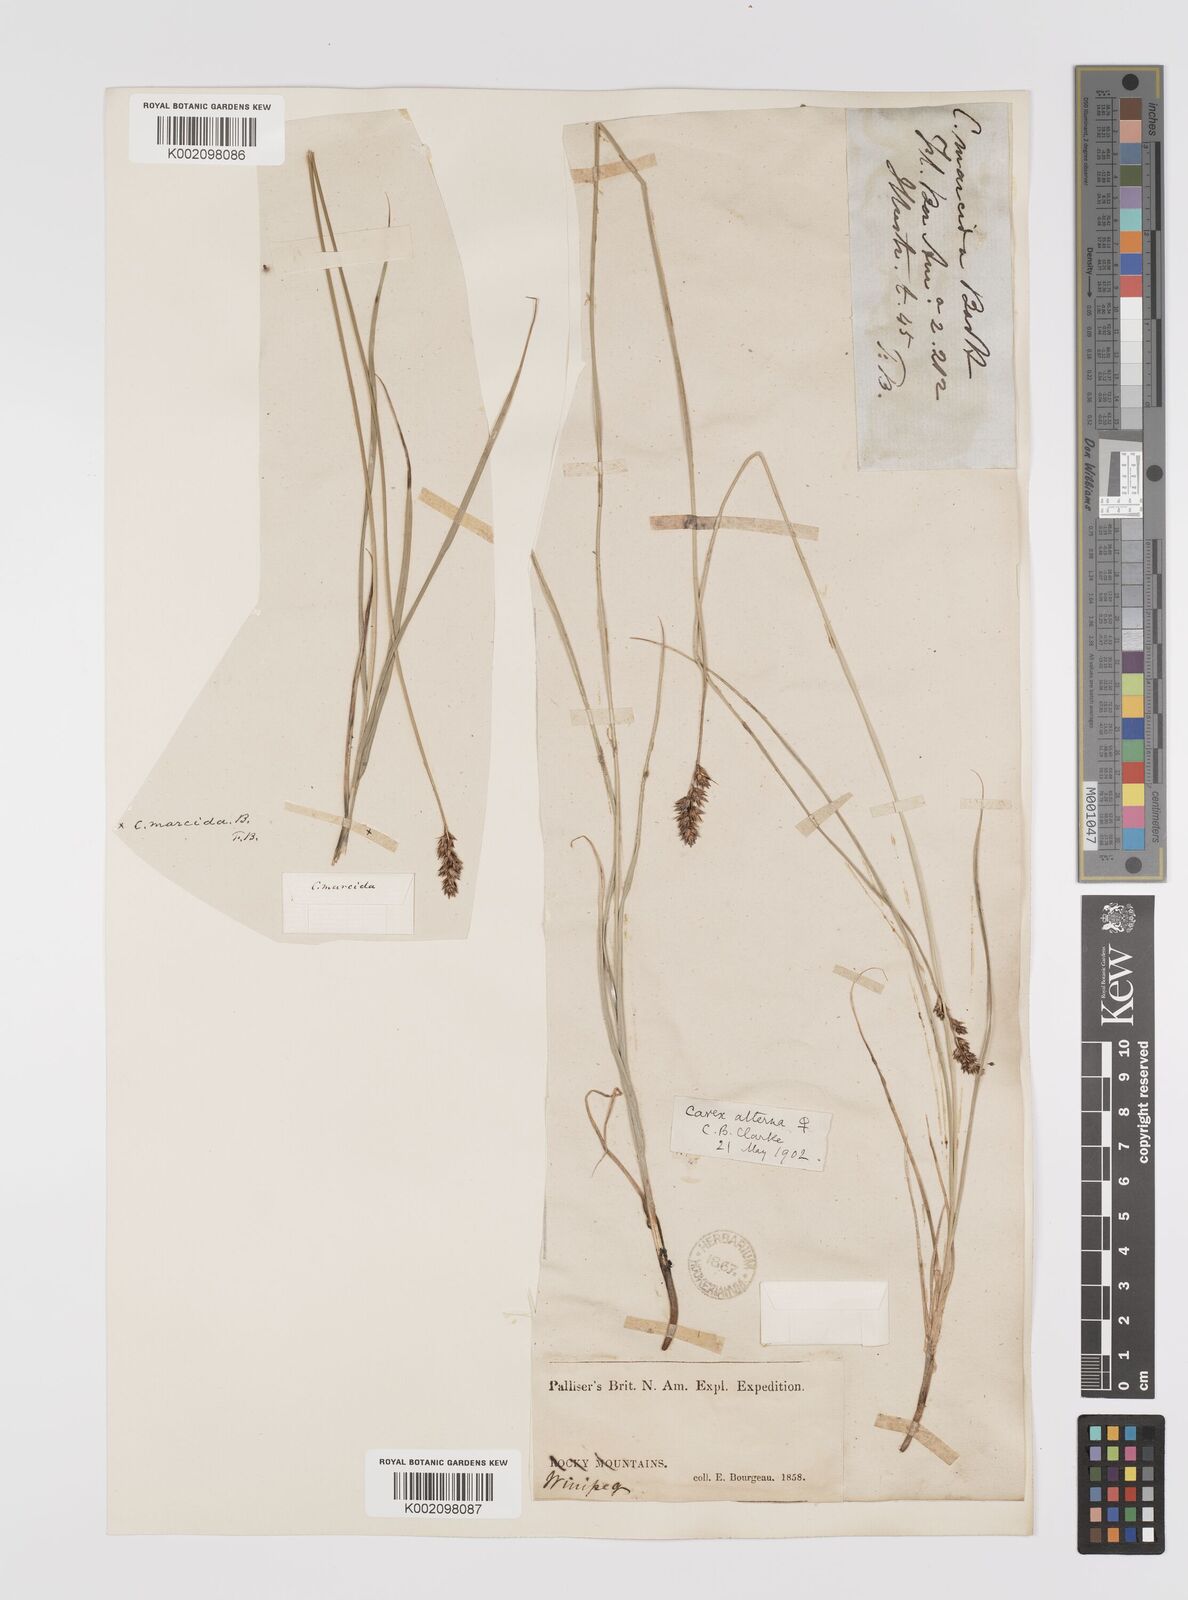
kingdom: Plantae
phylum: Tracheophyta
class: Liliopsida
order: Poales
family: Cyperaceae
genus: Carex
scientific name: Carex praegracilis
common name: Black creeper sedge
